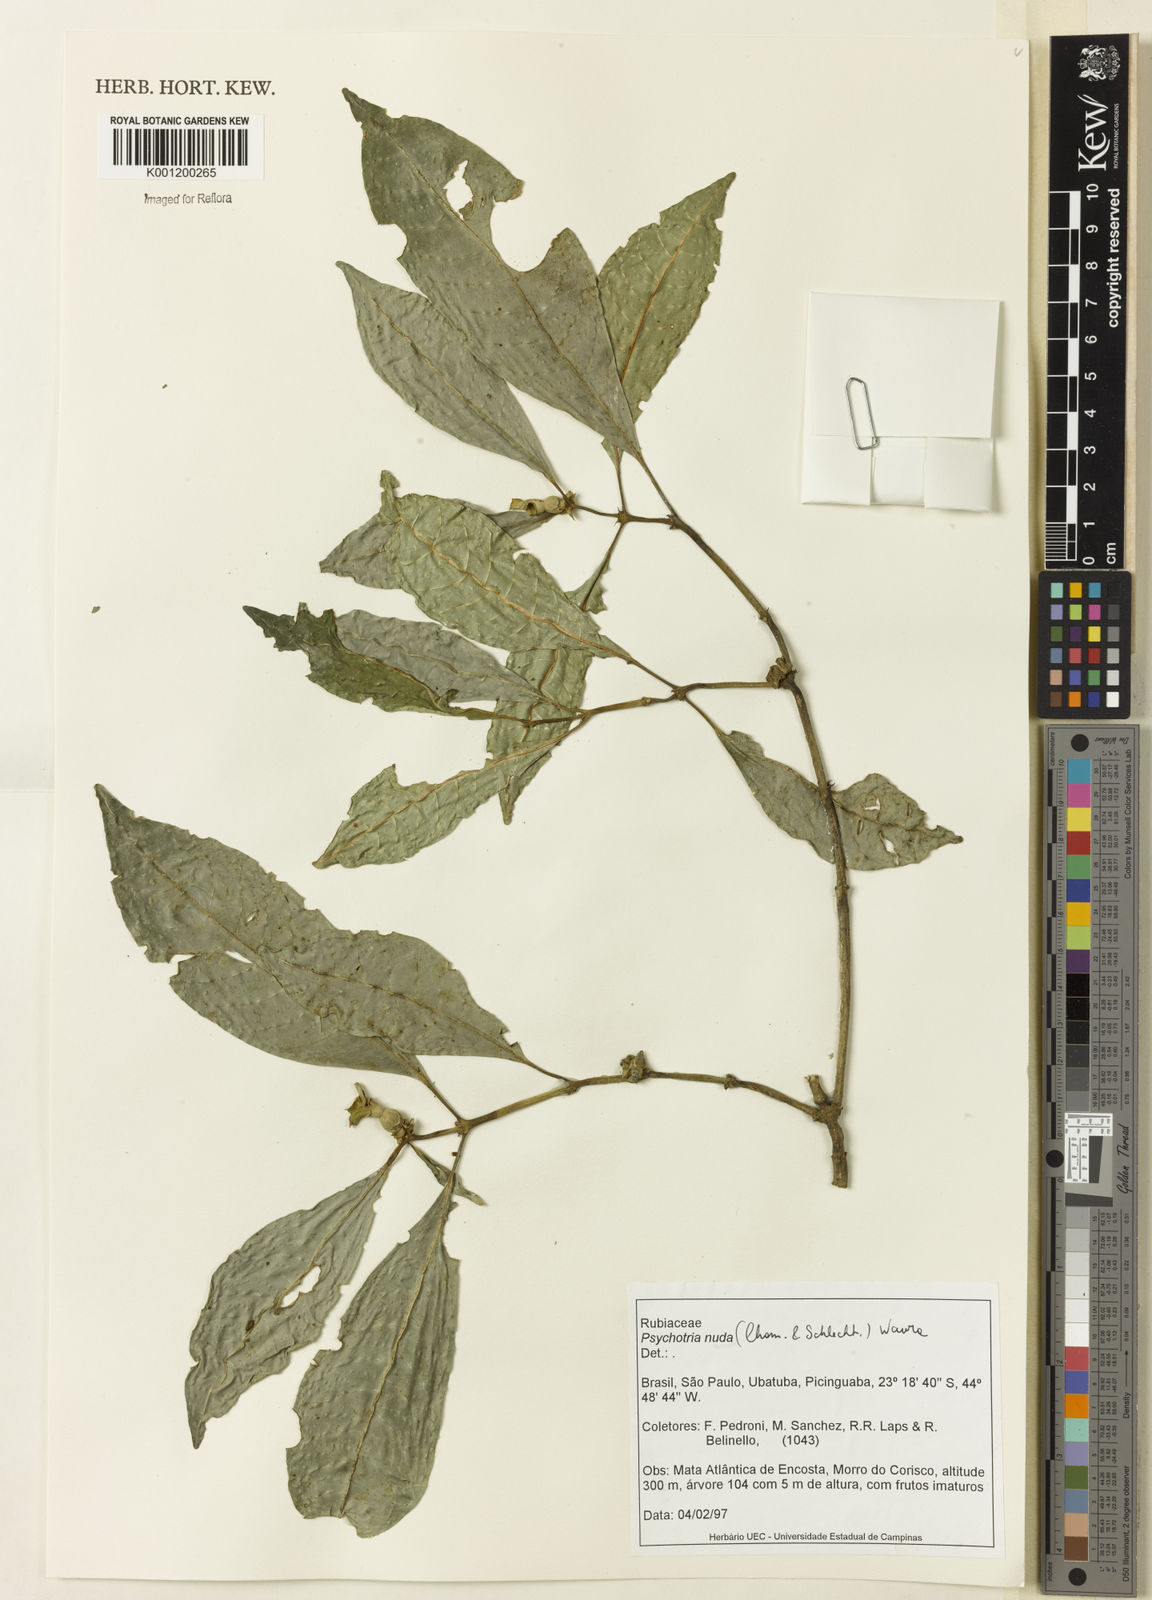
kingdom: Plantae
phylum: Tracheophyta
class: Magnoliopsida
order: Gentianales
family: Rubiaceae
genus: Psychotria
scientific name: Psychotria nuda
